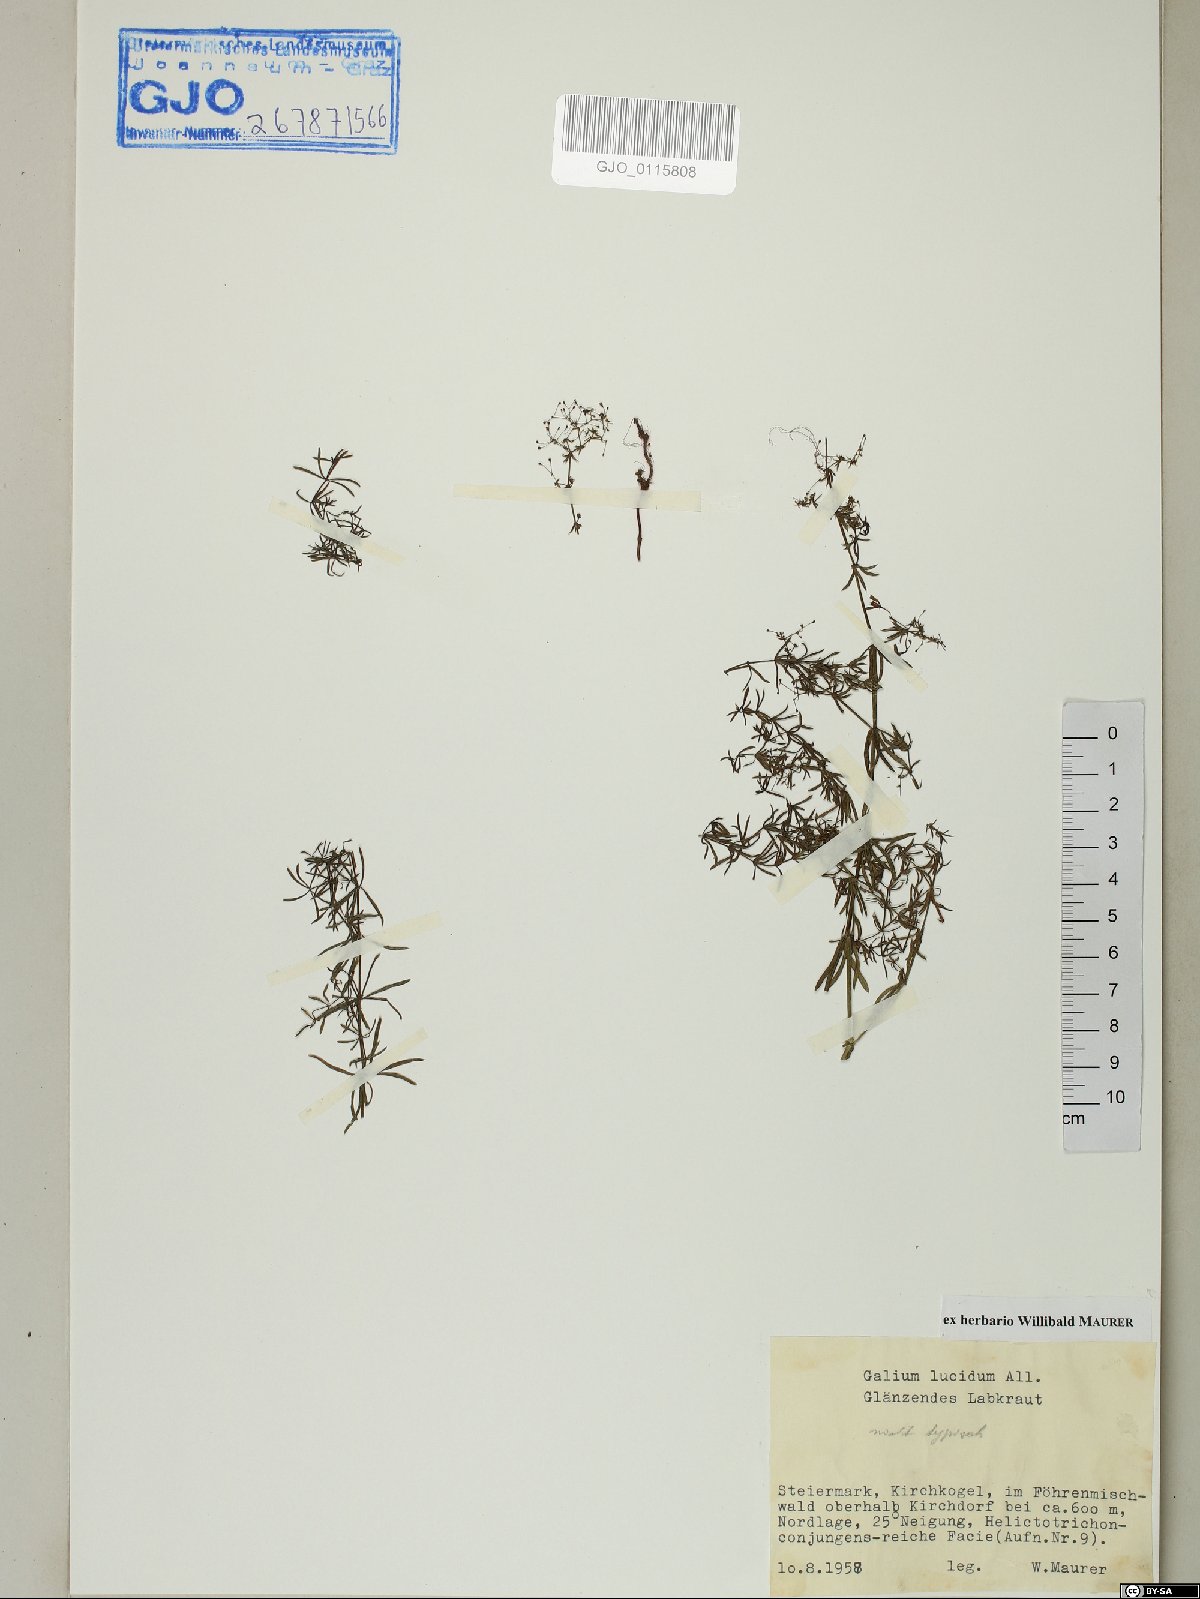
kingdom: Plantae
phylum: Tracheophyta
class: Magnoliopsida
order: Gentianales
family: Rubiaceae
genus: Galium
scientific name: Galium lucidum
